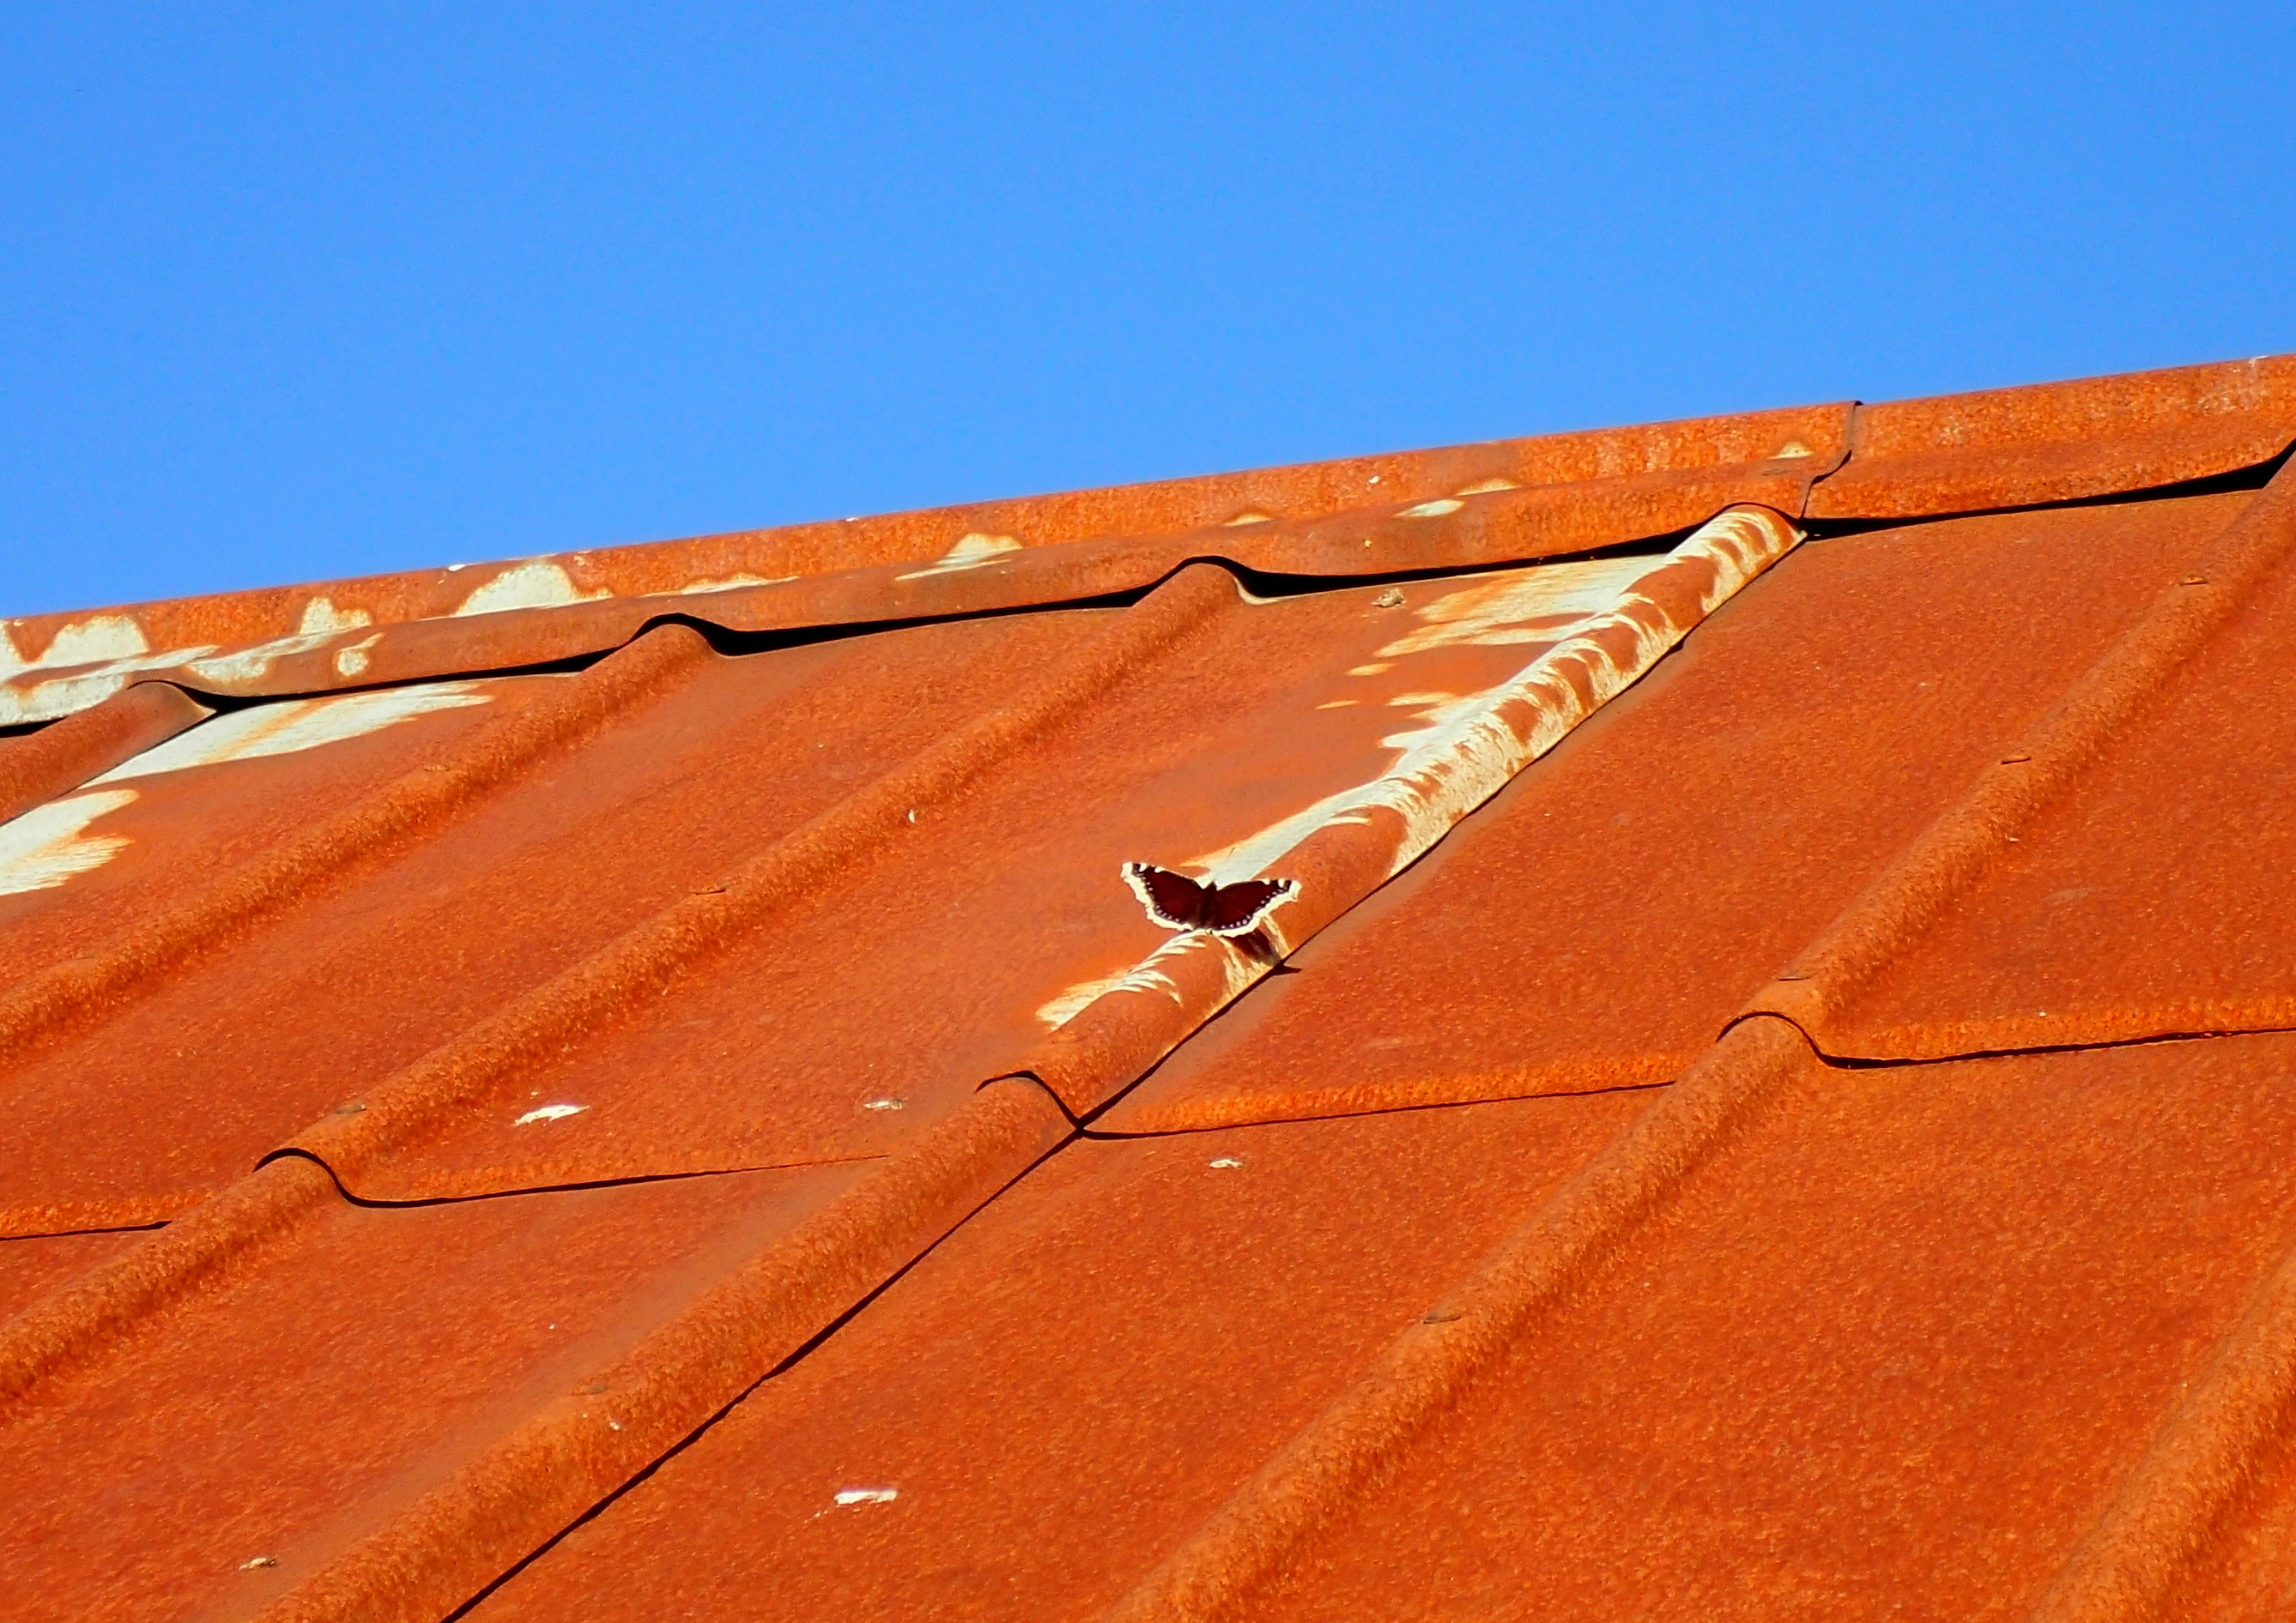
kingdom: Animalia
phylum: Arthropoda
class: Insecta
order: Lepidoptera
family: Nymphalidae
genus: Nymphalis
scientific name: Nymphalis antiopa
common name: Sørgekåbe
